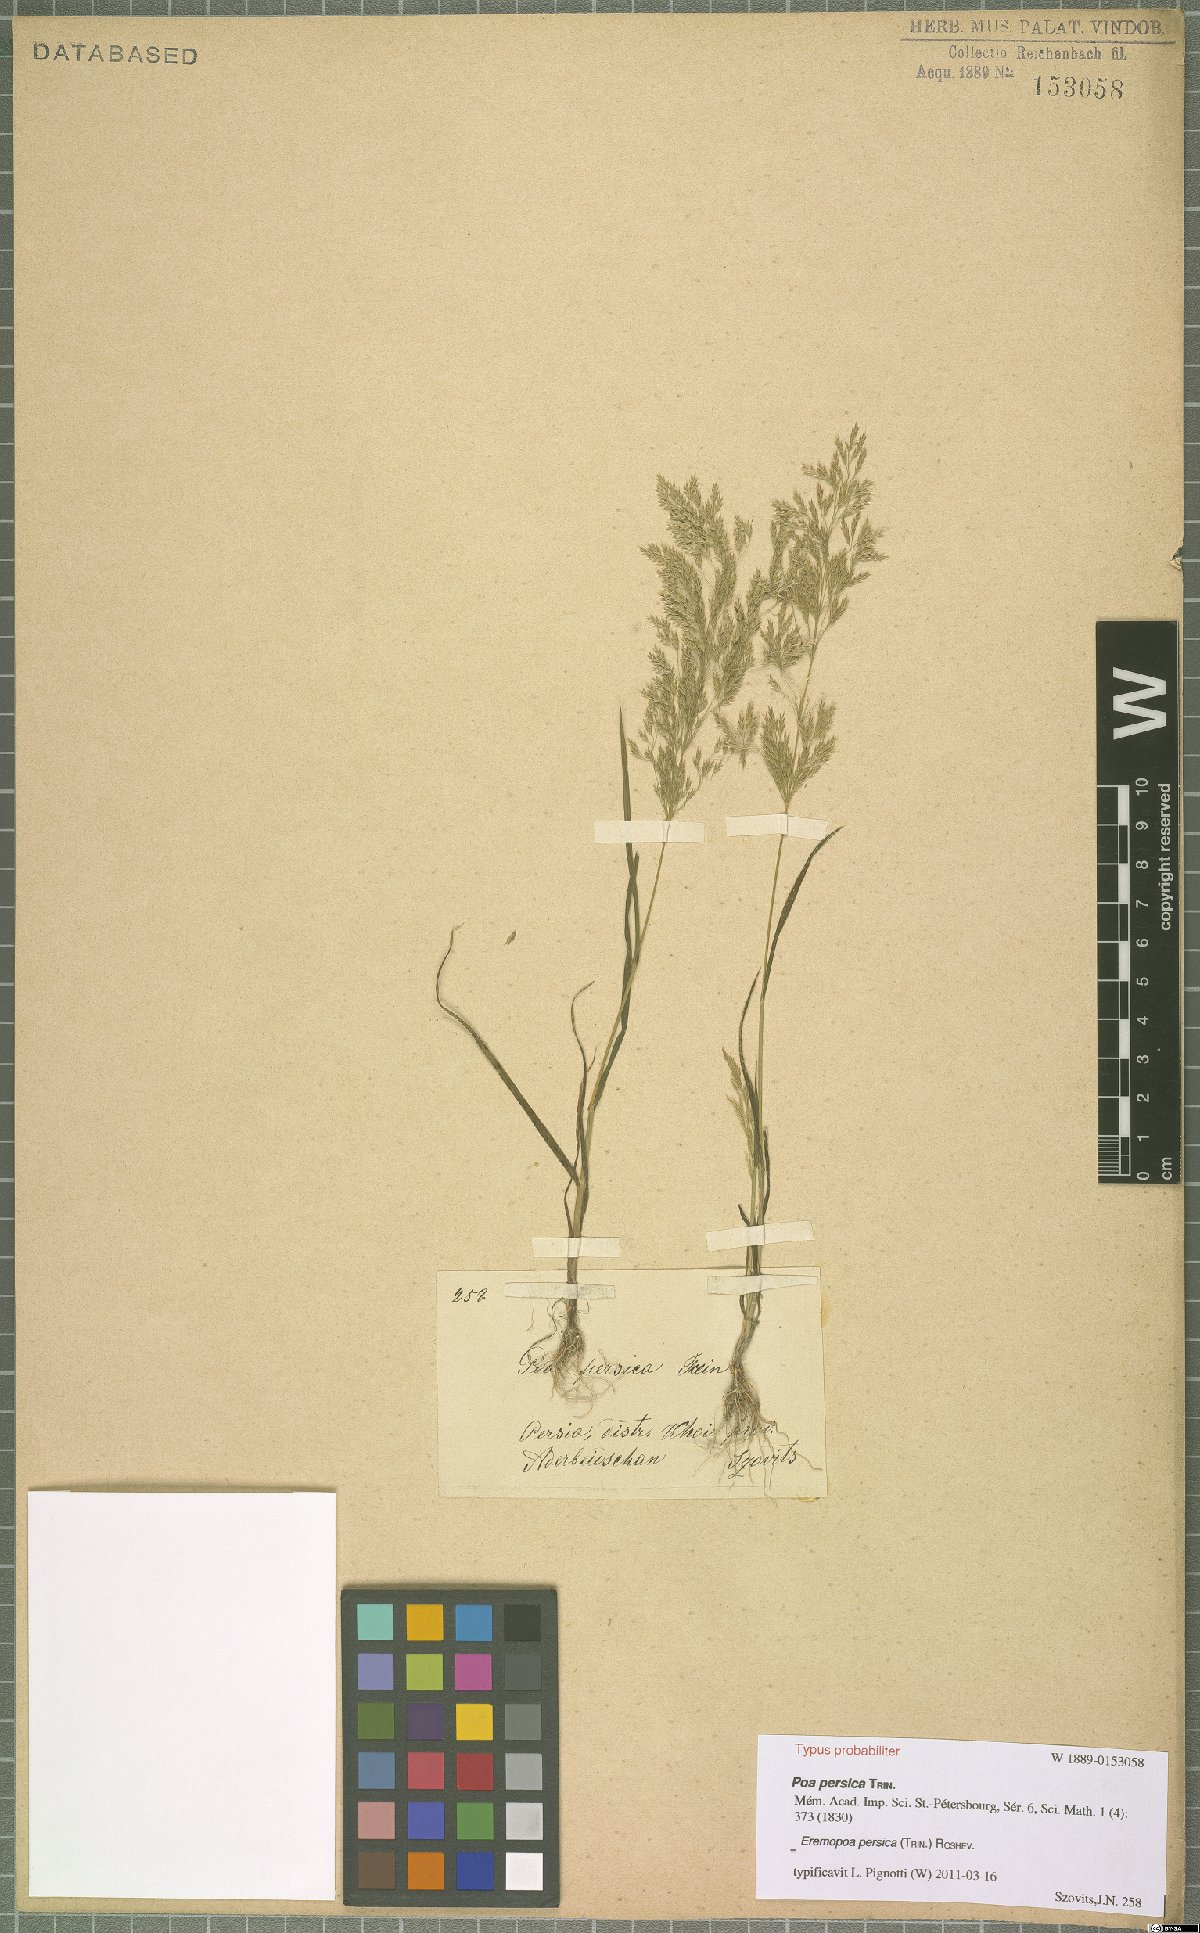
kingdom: Plantae
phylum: Tracheophyta
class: Liliopsida
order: Poales
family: Poaceae
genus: Poa
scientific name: Poa persica
